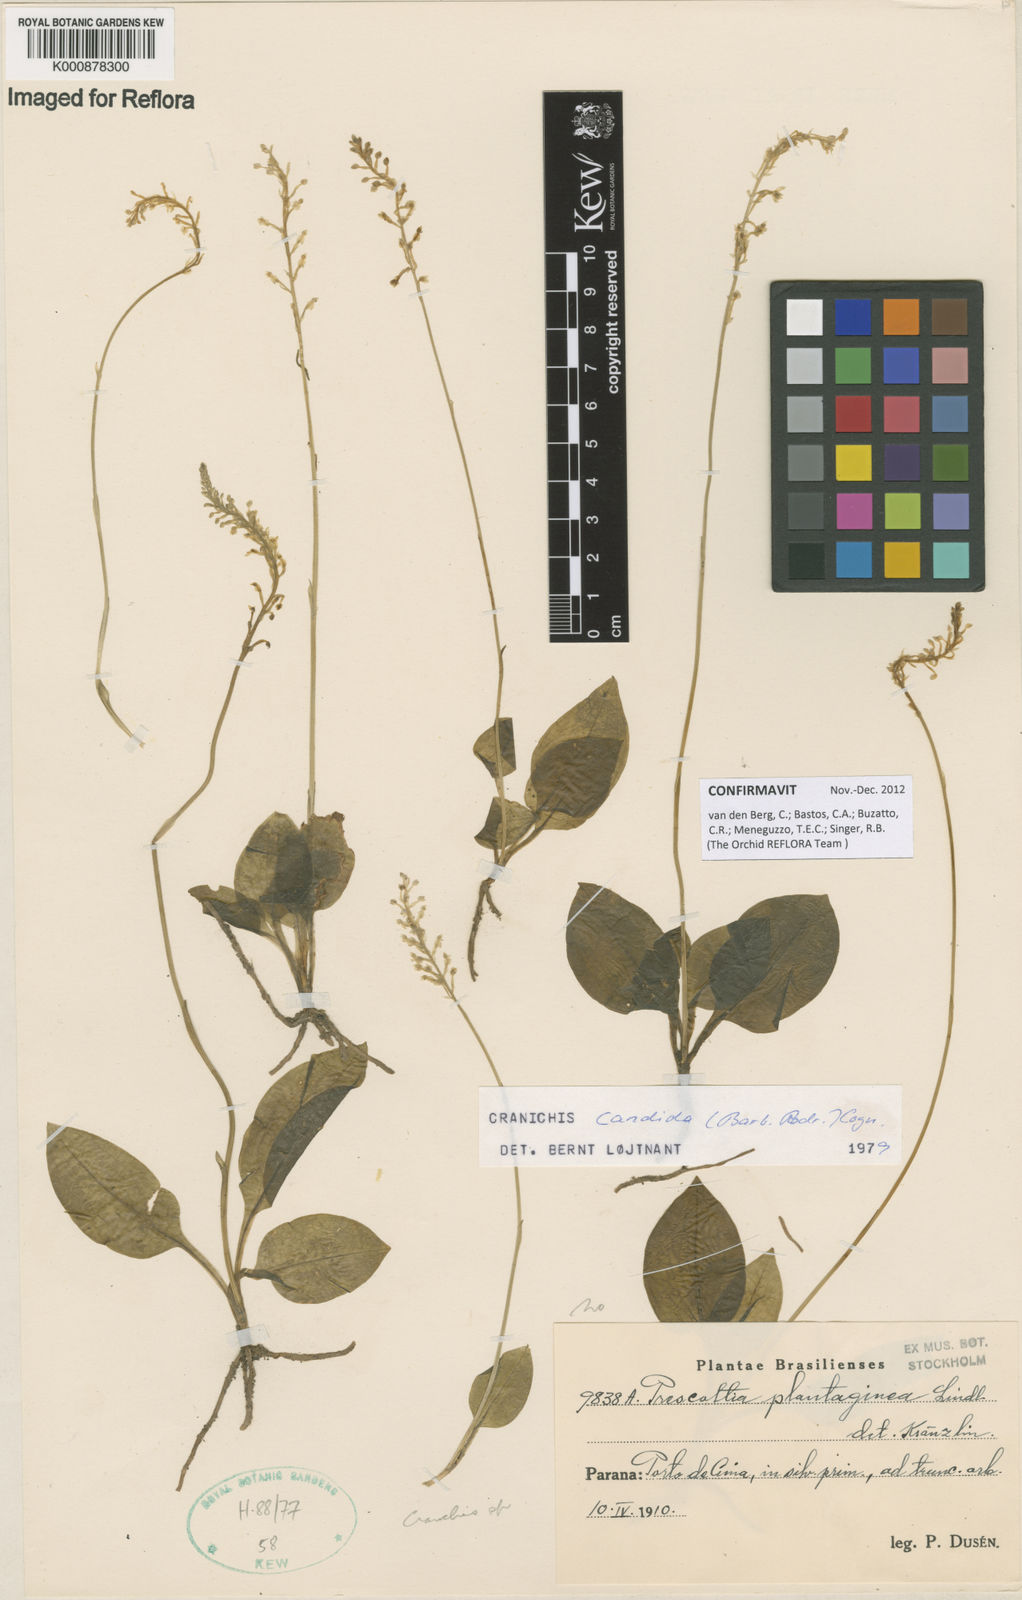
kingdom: Plantae
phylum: Tracheophyta
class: Liliopsida
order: Asparagales
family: Orchidaceae
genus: Cranichis
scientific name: Cranichis candida
